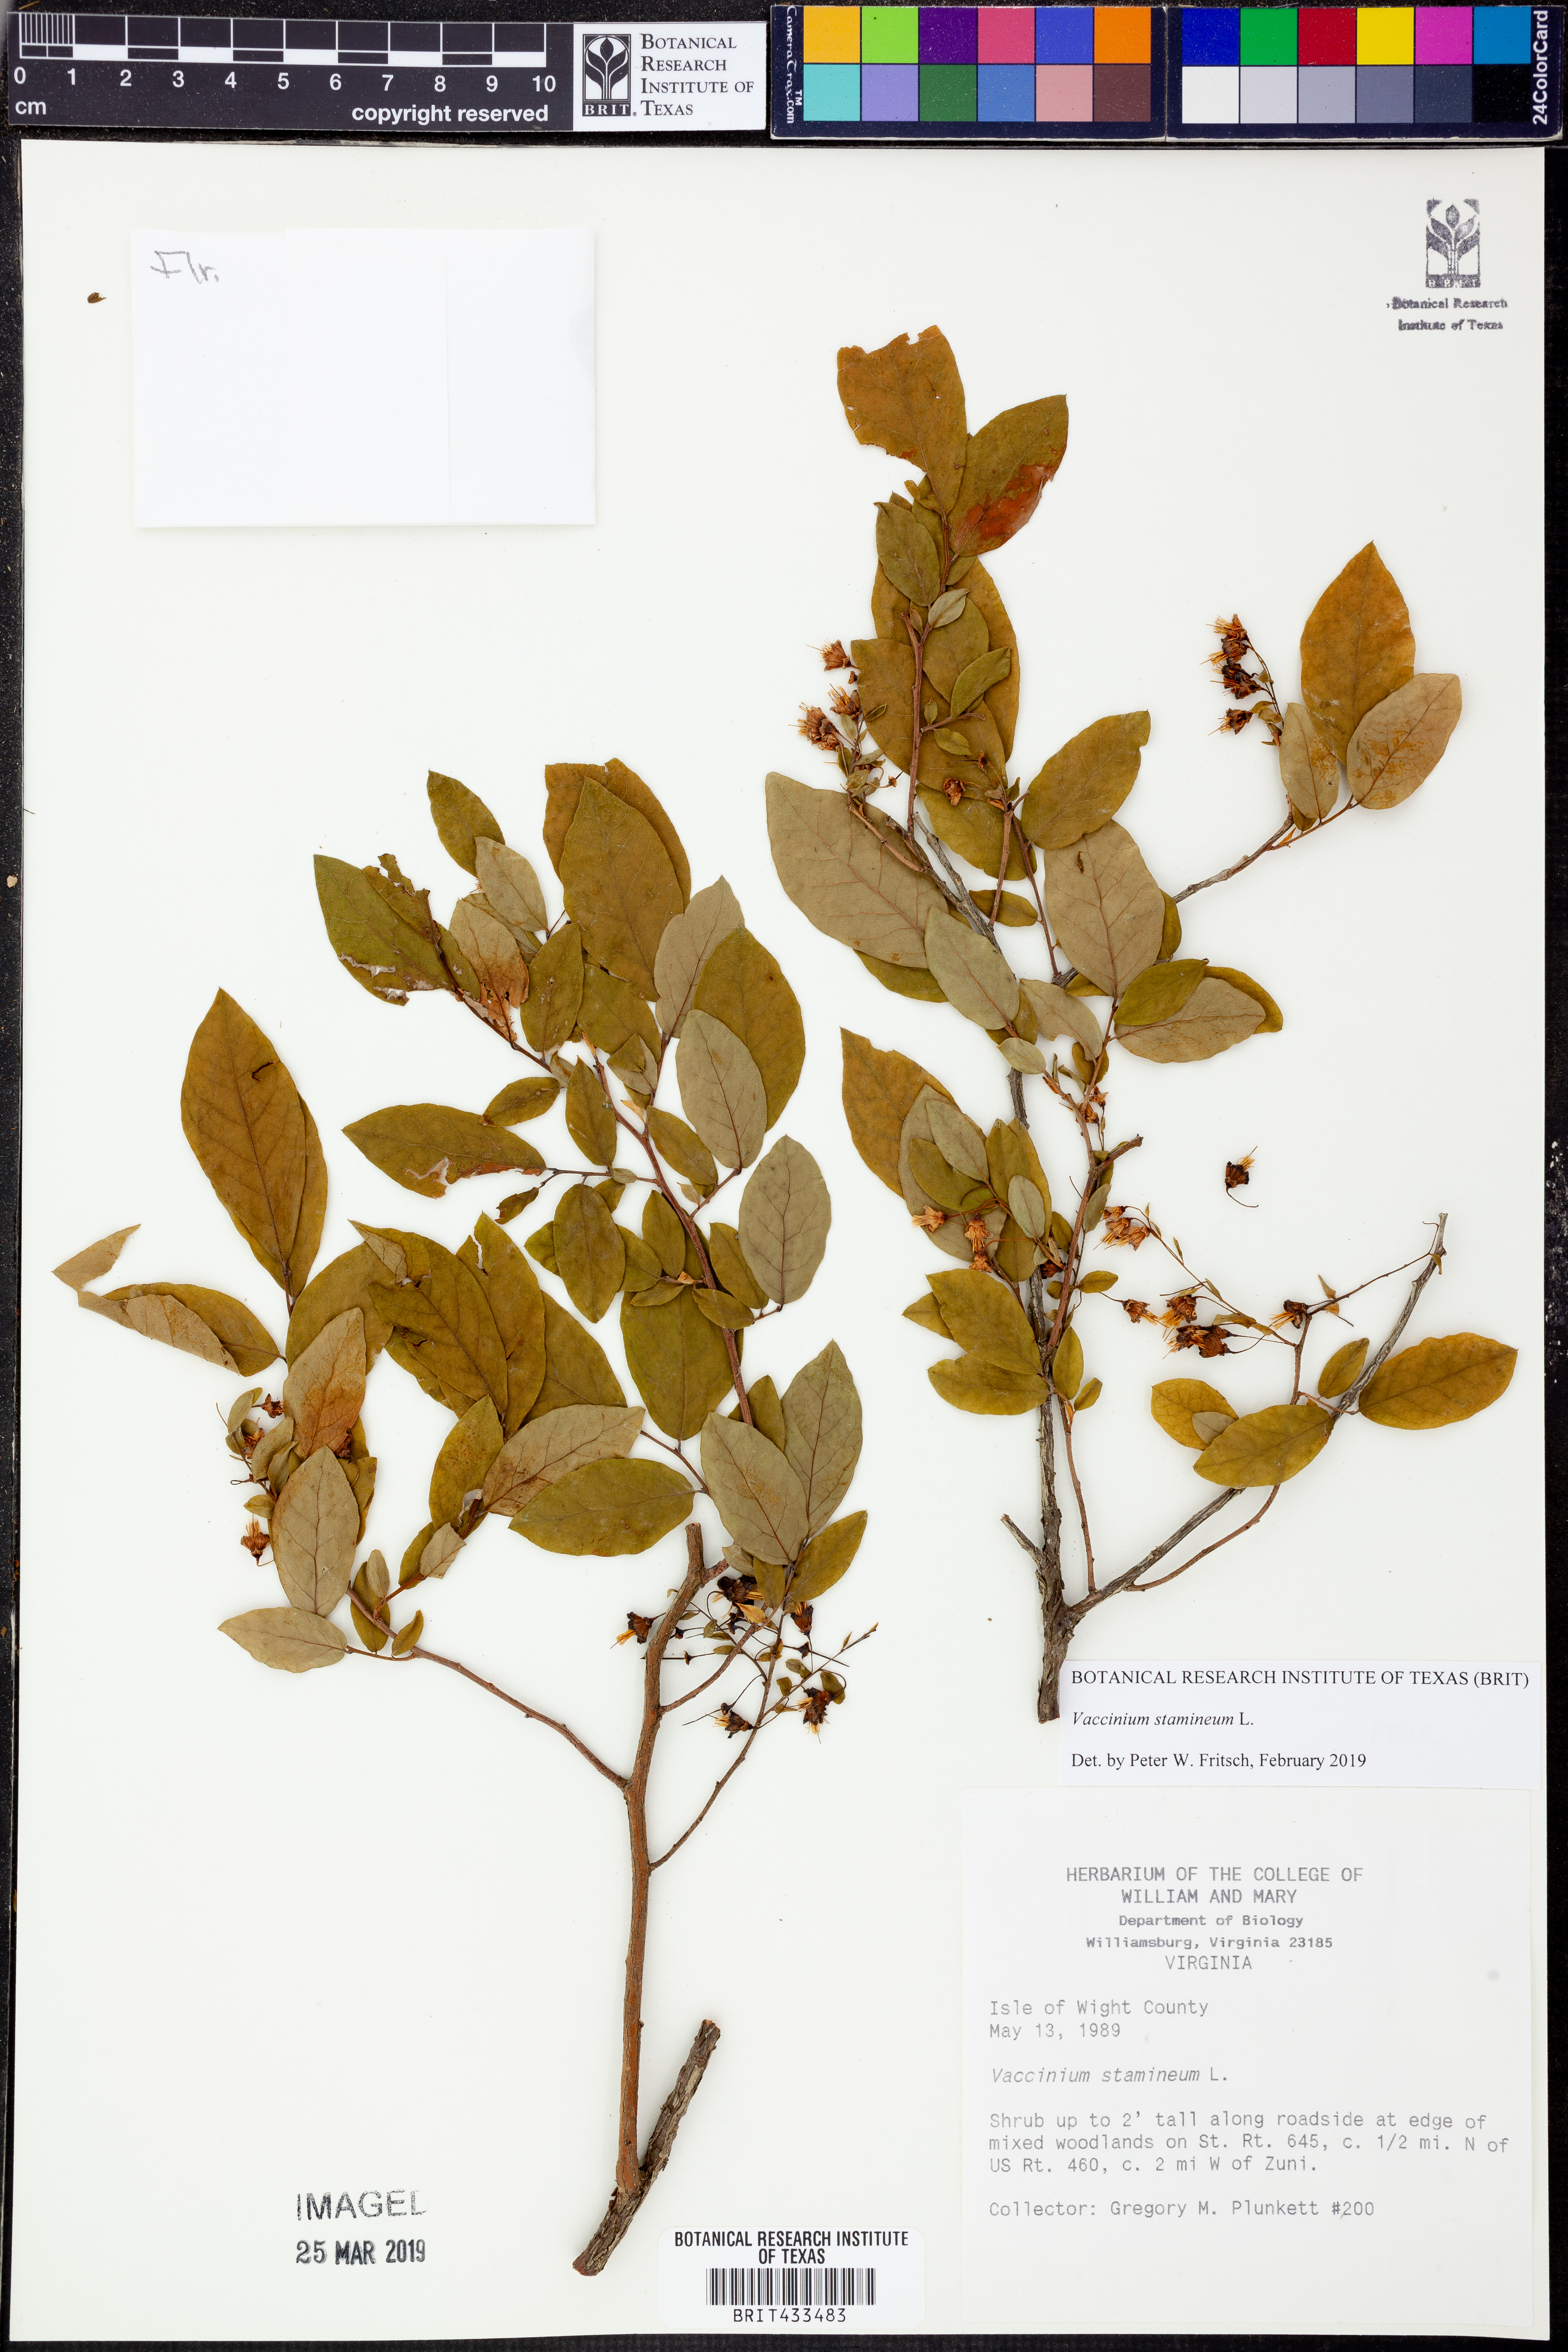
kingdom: Plantae
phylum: Tracheophyta
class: Magnoliopsida
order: Ericales
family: Ericaceae
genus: Vaccinium
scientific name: Vaccinium stamineum
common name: Deerberry
